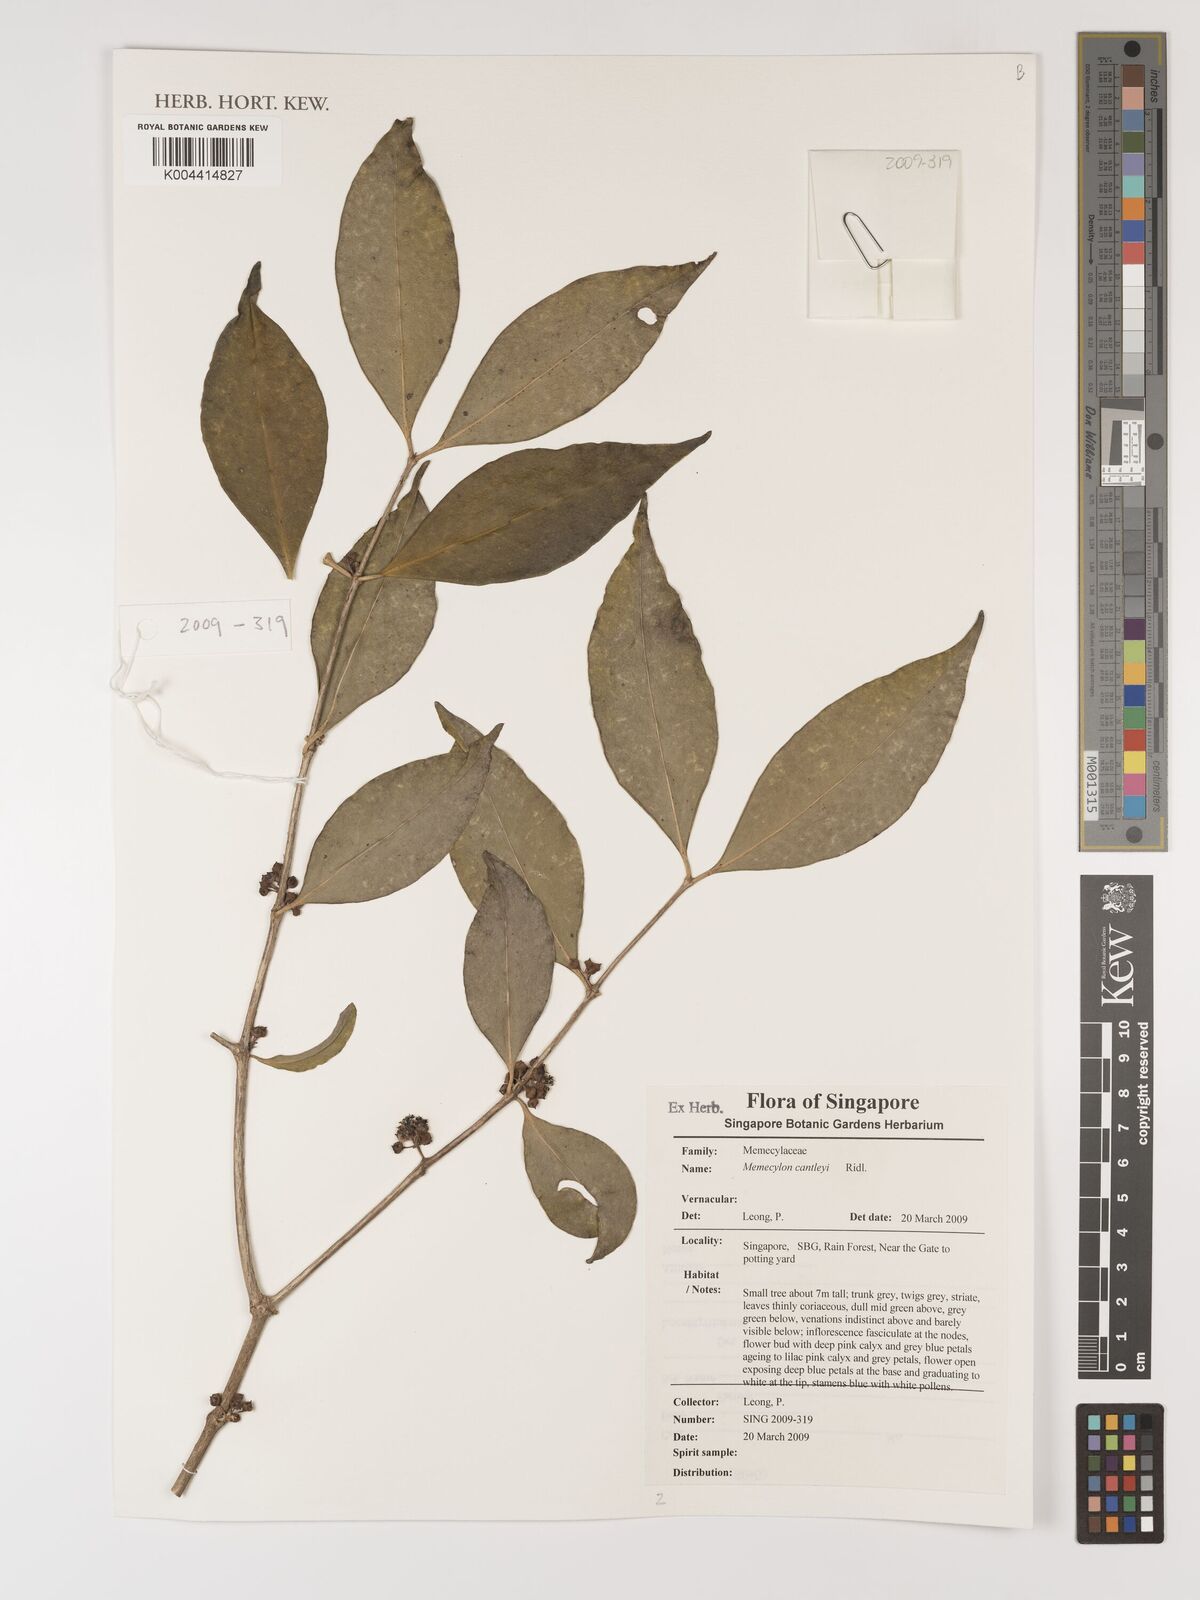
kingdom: Plantae
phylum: Tracheophyta
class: Magnoliopsida
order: Myrtales
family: Melastomataceae
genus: Memecylon
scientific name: Memecylon cantleyi
